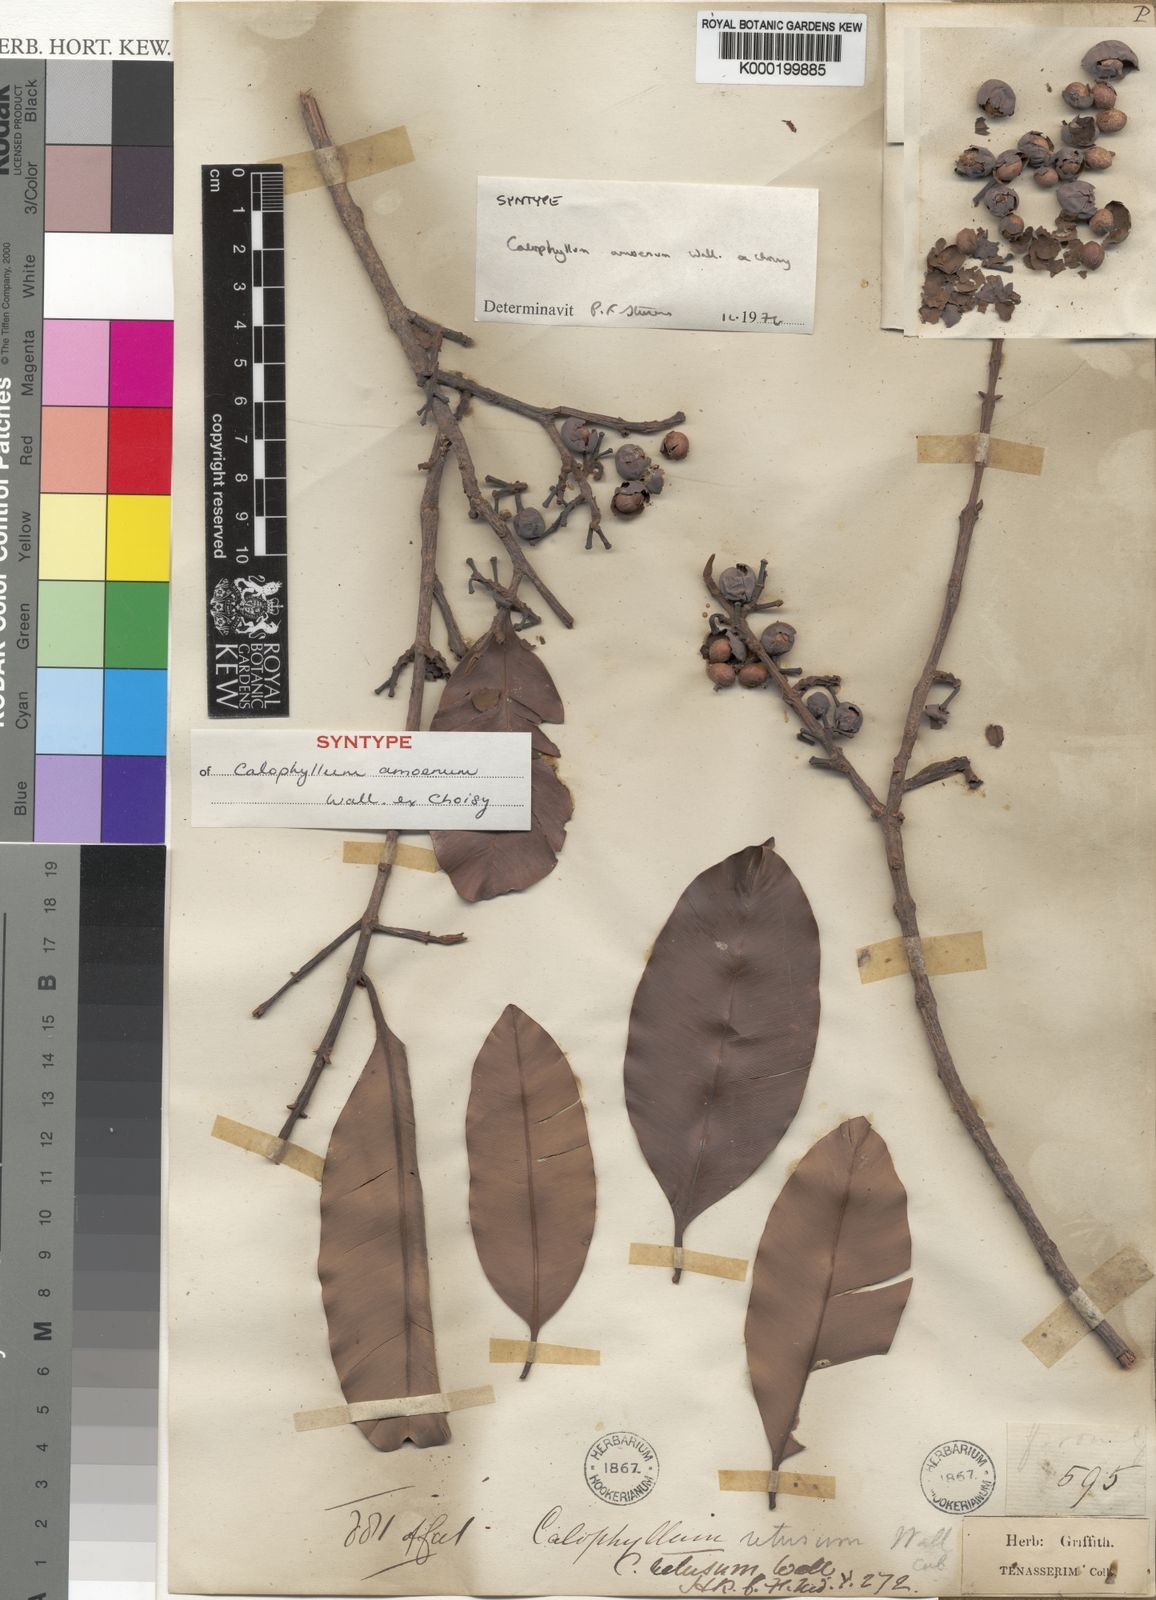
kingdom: Plantae
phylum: Tracheophyta
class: Magnoliopsida
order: Malpighiales
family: Calophyllaceae
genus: Calophyllum
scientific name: Calophyllum calaba
